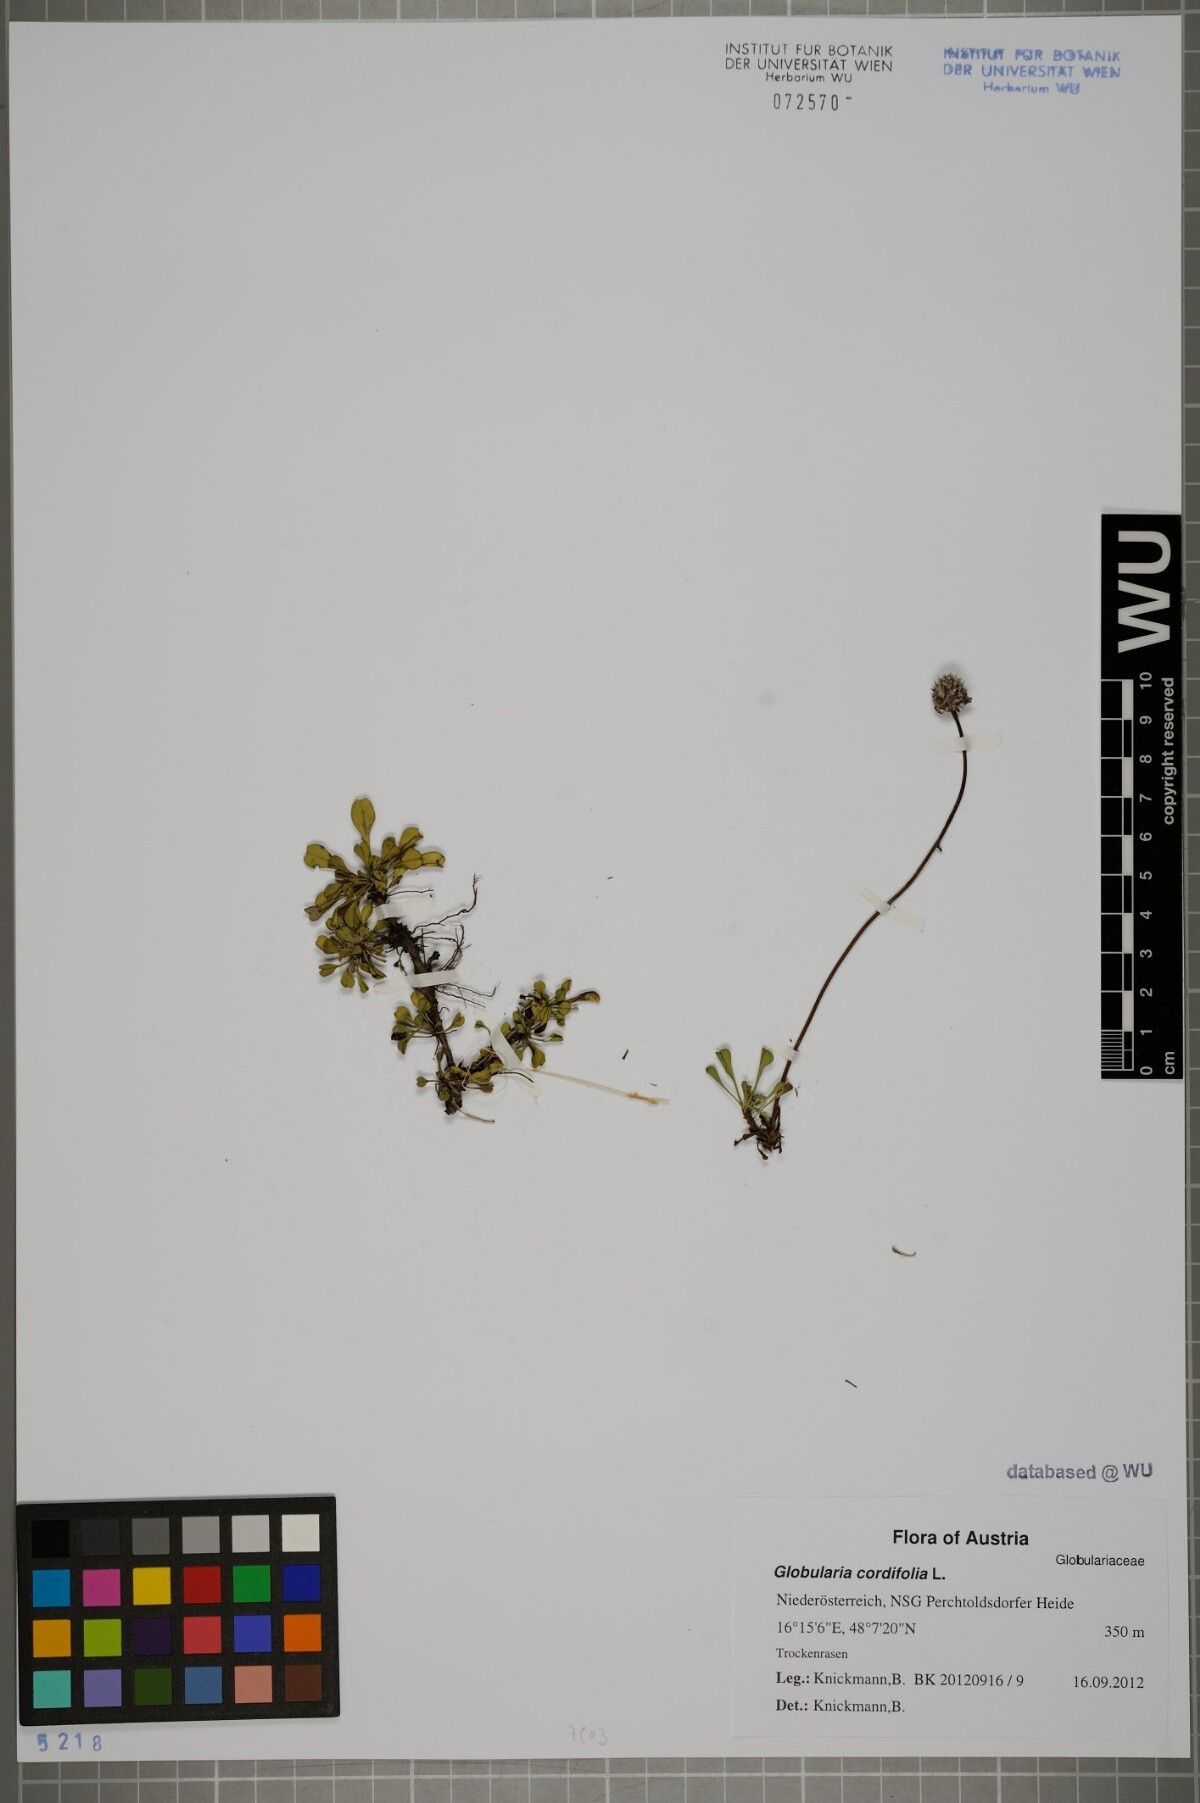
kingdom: Plantae
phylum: Tracheophyta
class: Magnoliopsida
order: Lamiales
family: Plantaginaceae
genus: Globularia
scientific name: Globularia cordifolia
